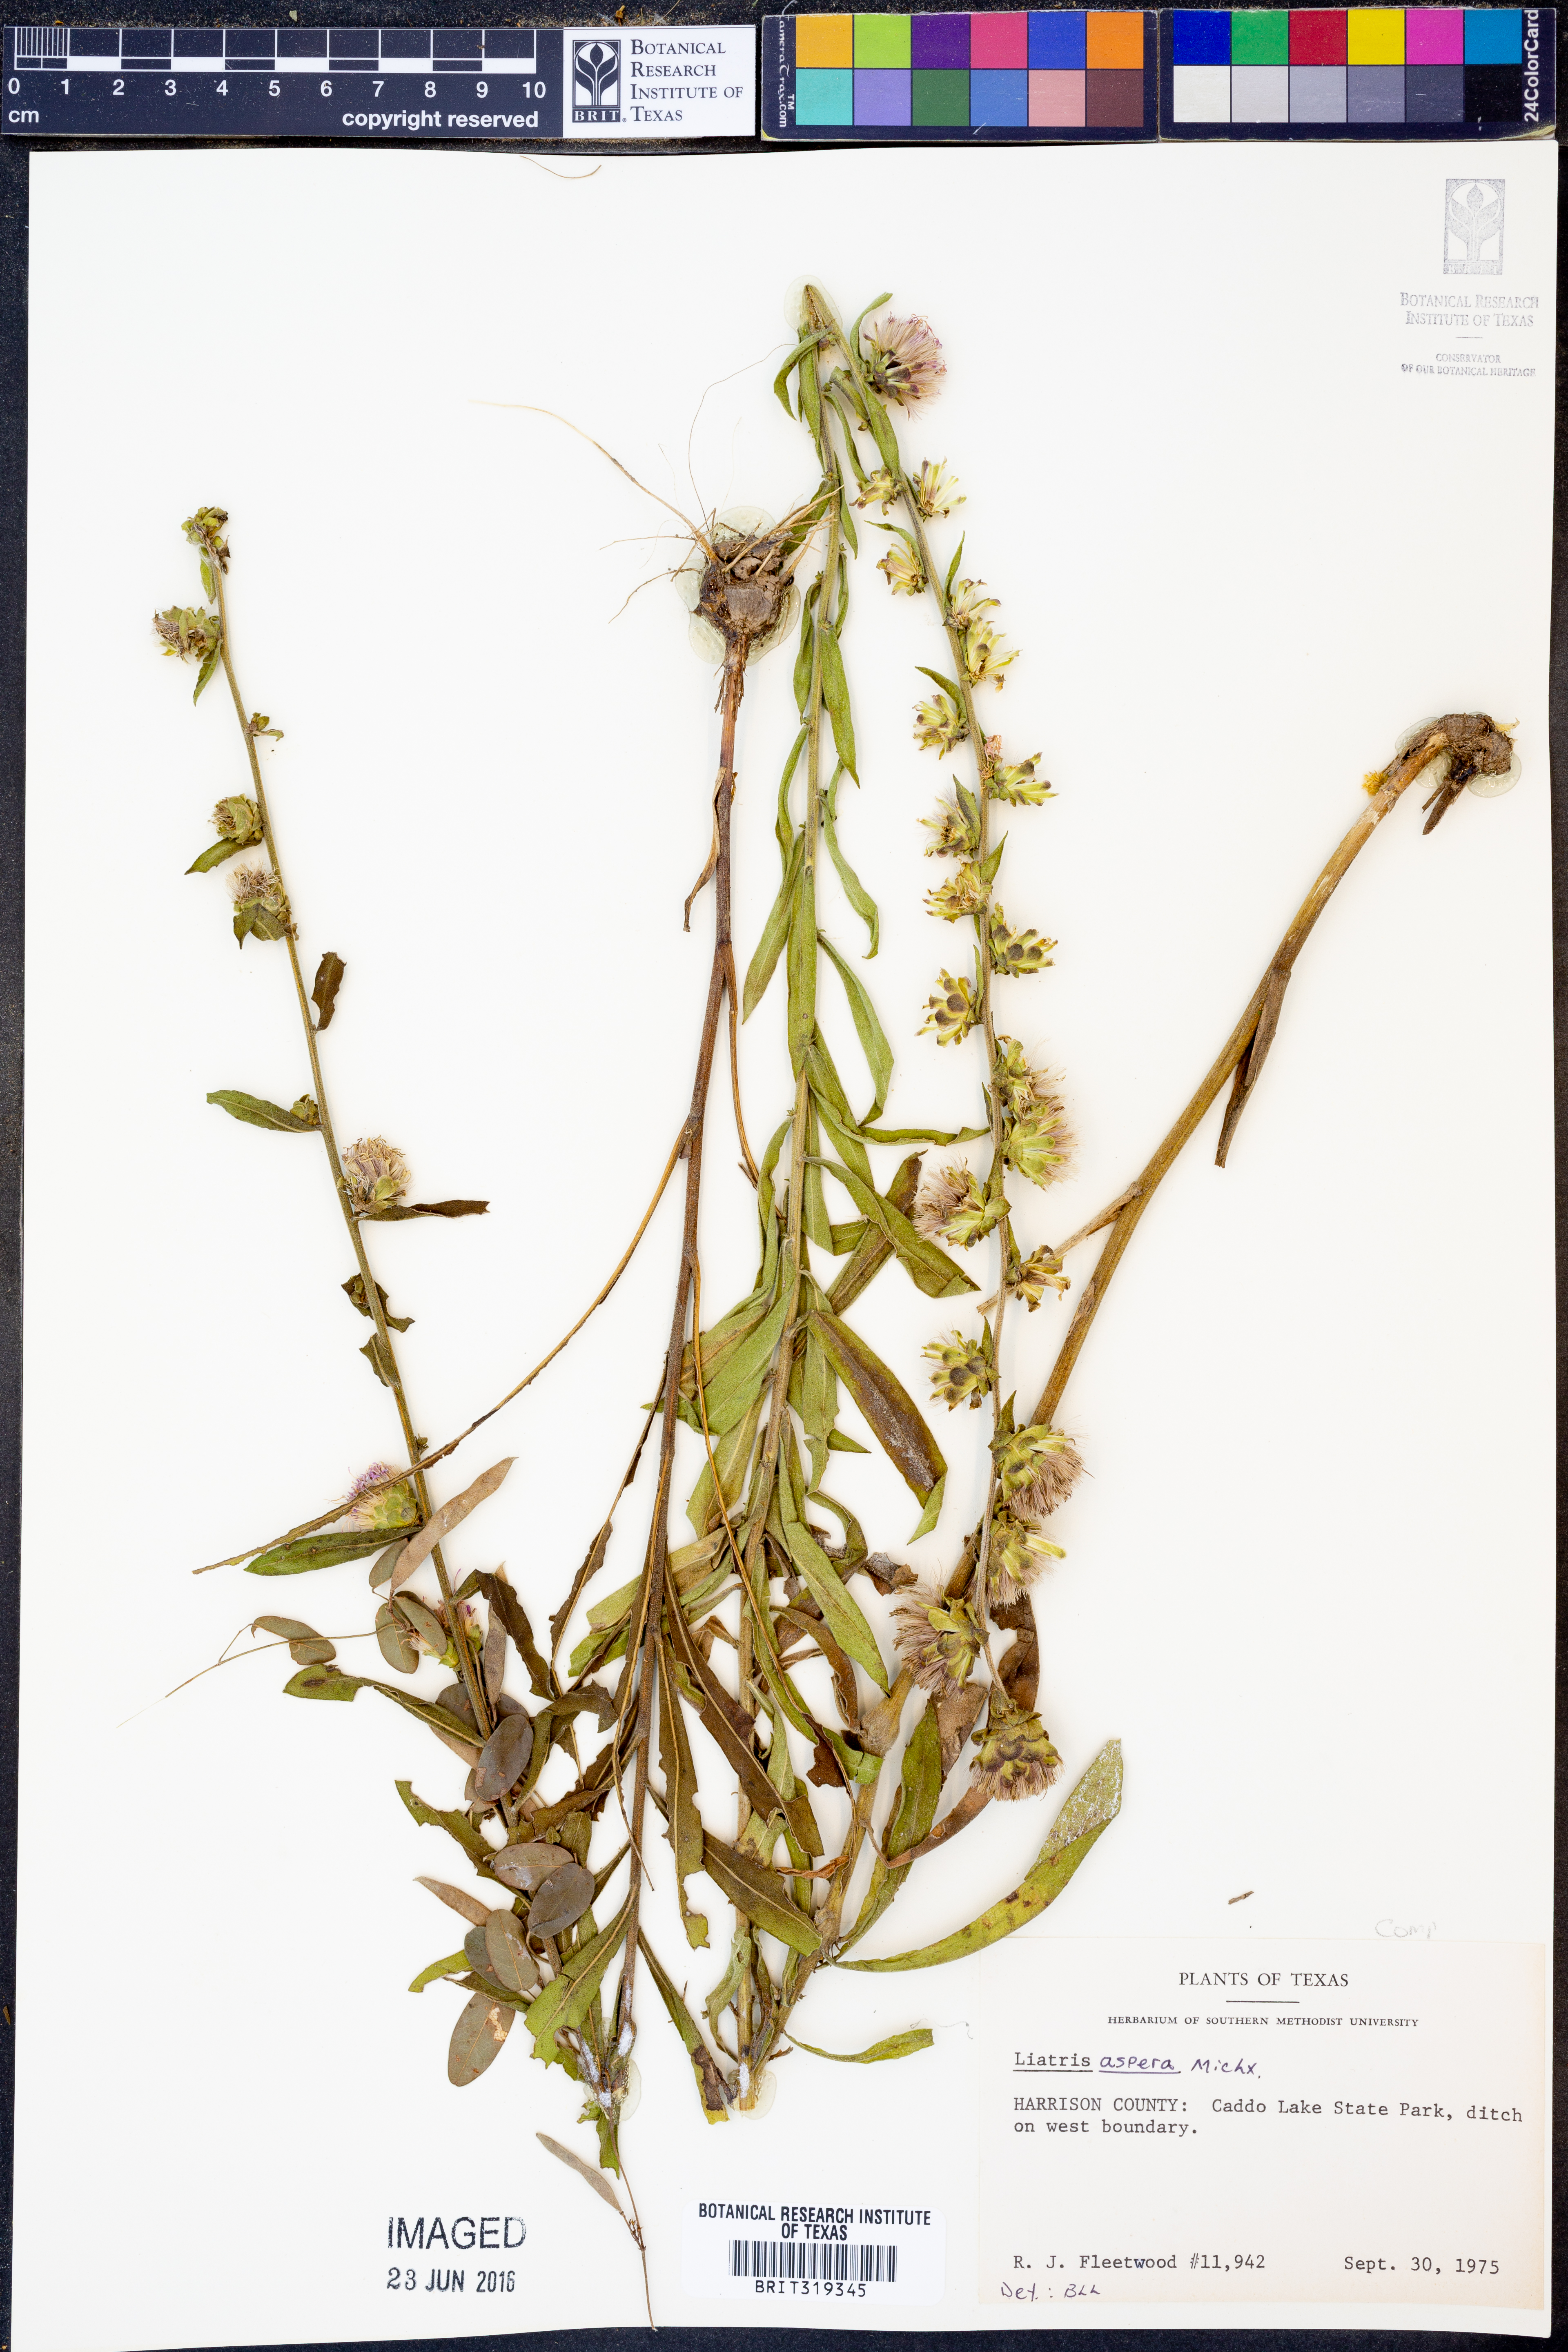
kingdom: Plantae
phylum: Tracheophyta
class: Magnoliopsida
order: Asterales
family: Asteraceae
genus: Liatris
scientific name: Liatris aspera
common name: Lacerate blazing-star
